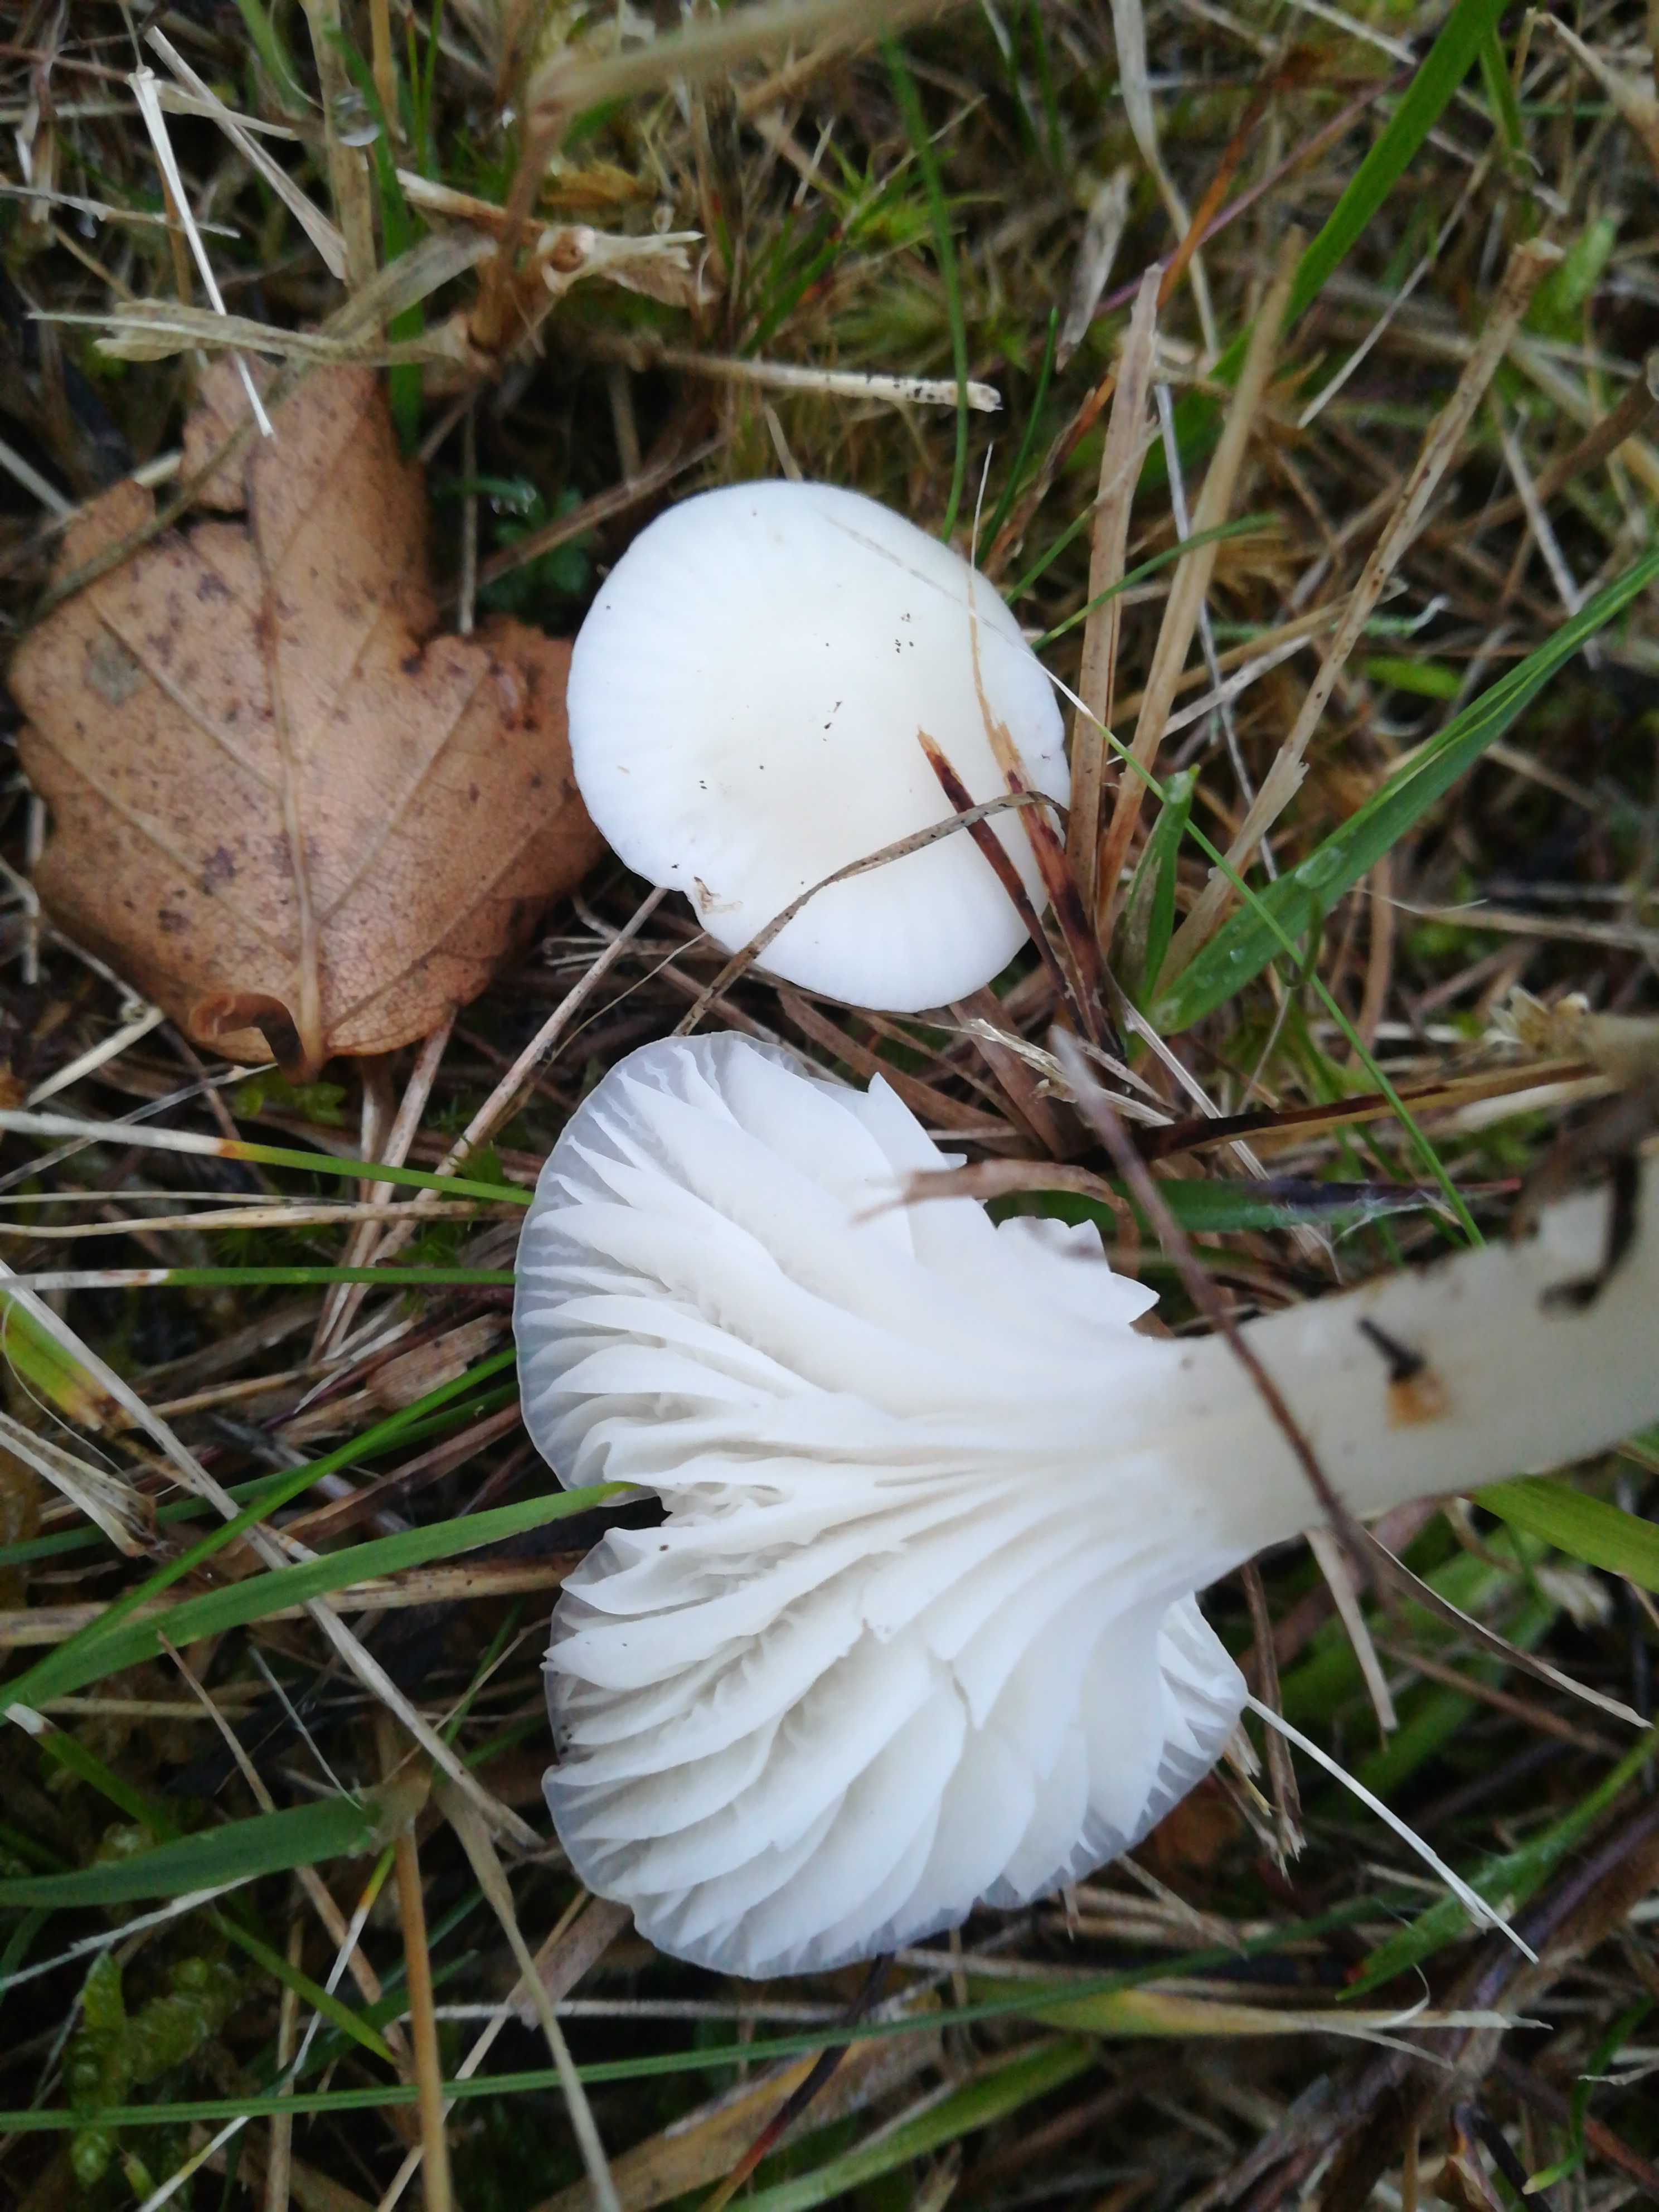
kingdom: Fungi
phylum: Basidiomycota
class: Agaricomycetes
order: Agaricales
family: Hygrophoraceae
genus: Cuphophyllus
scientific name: Cuphophyllus virgineus
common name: snehvid vokshat
